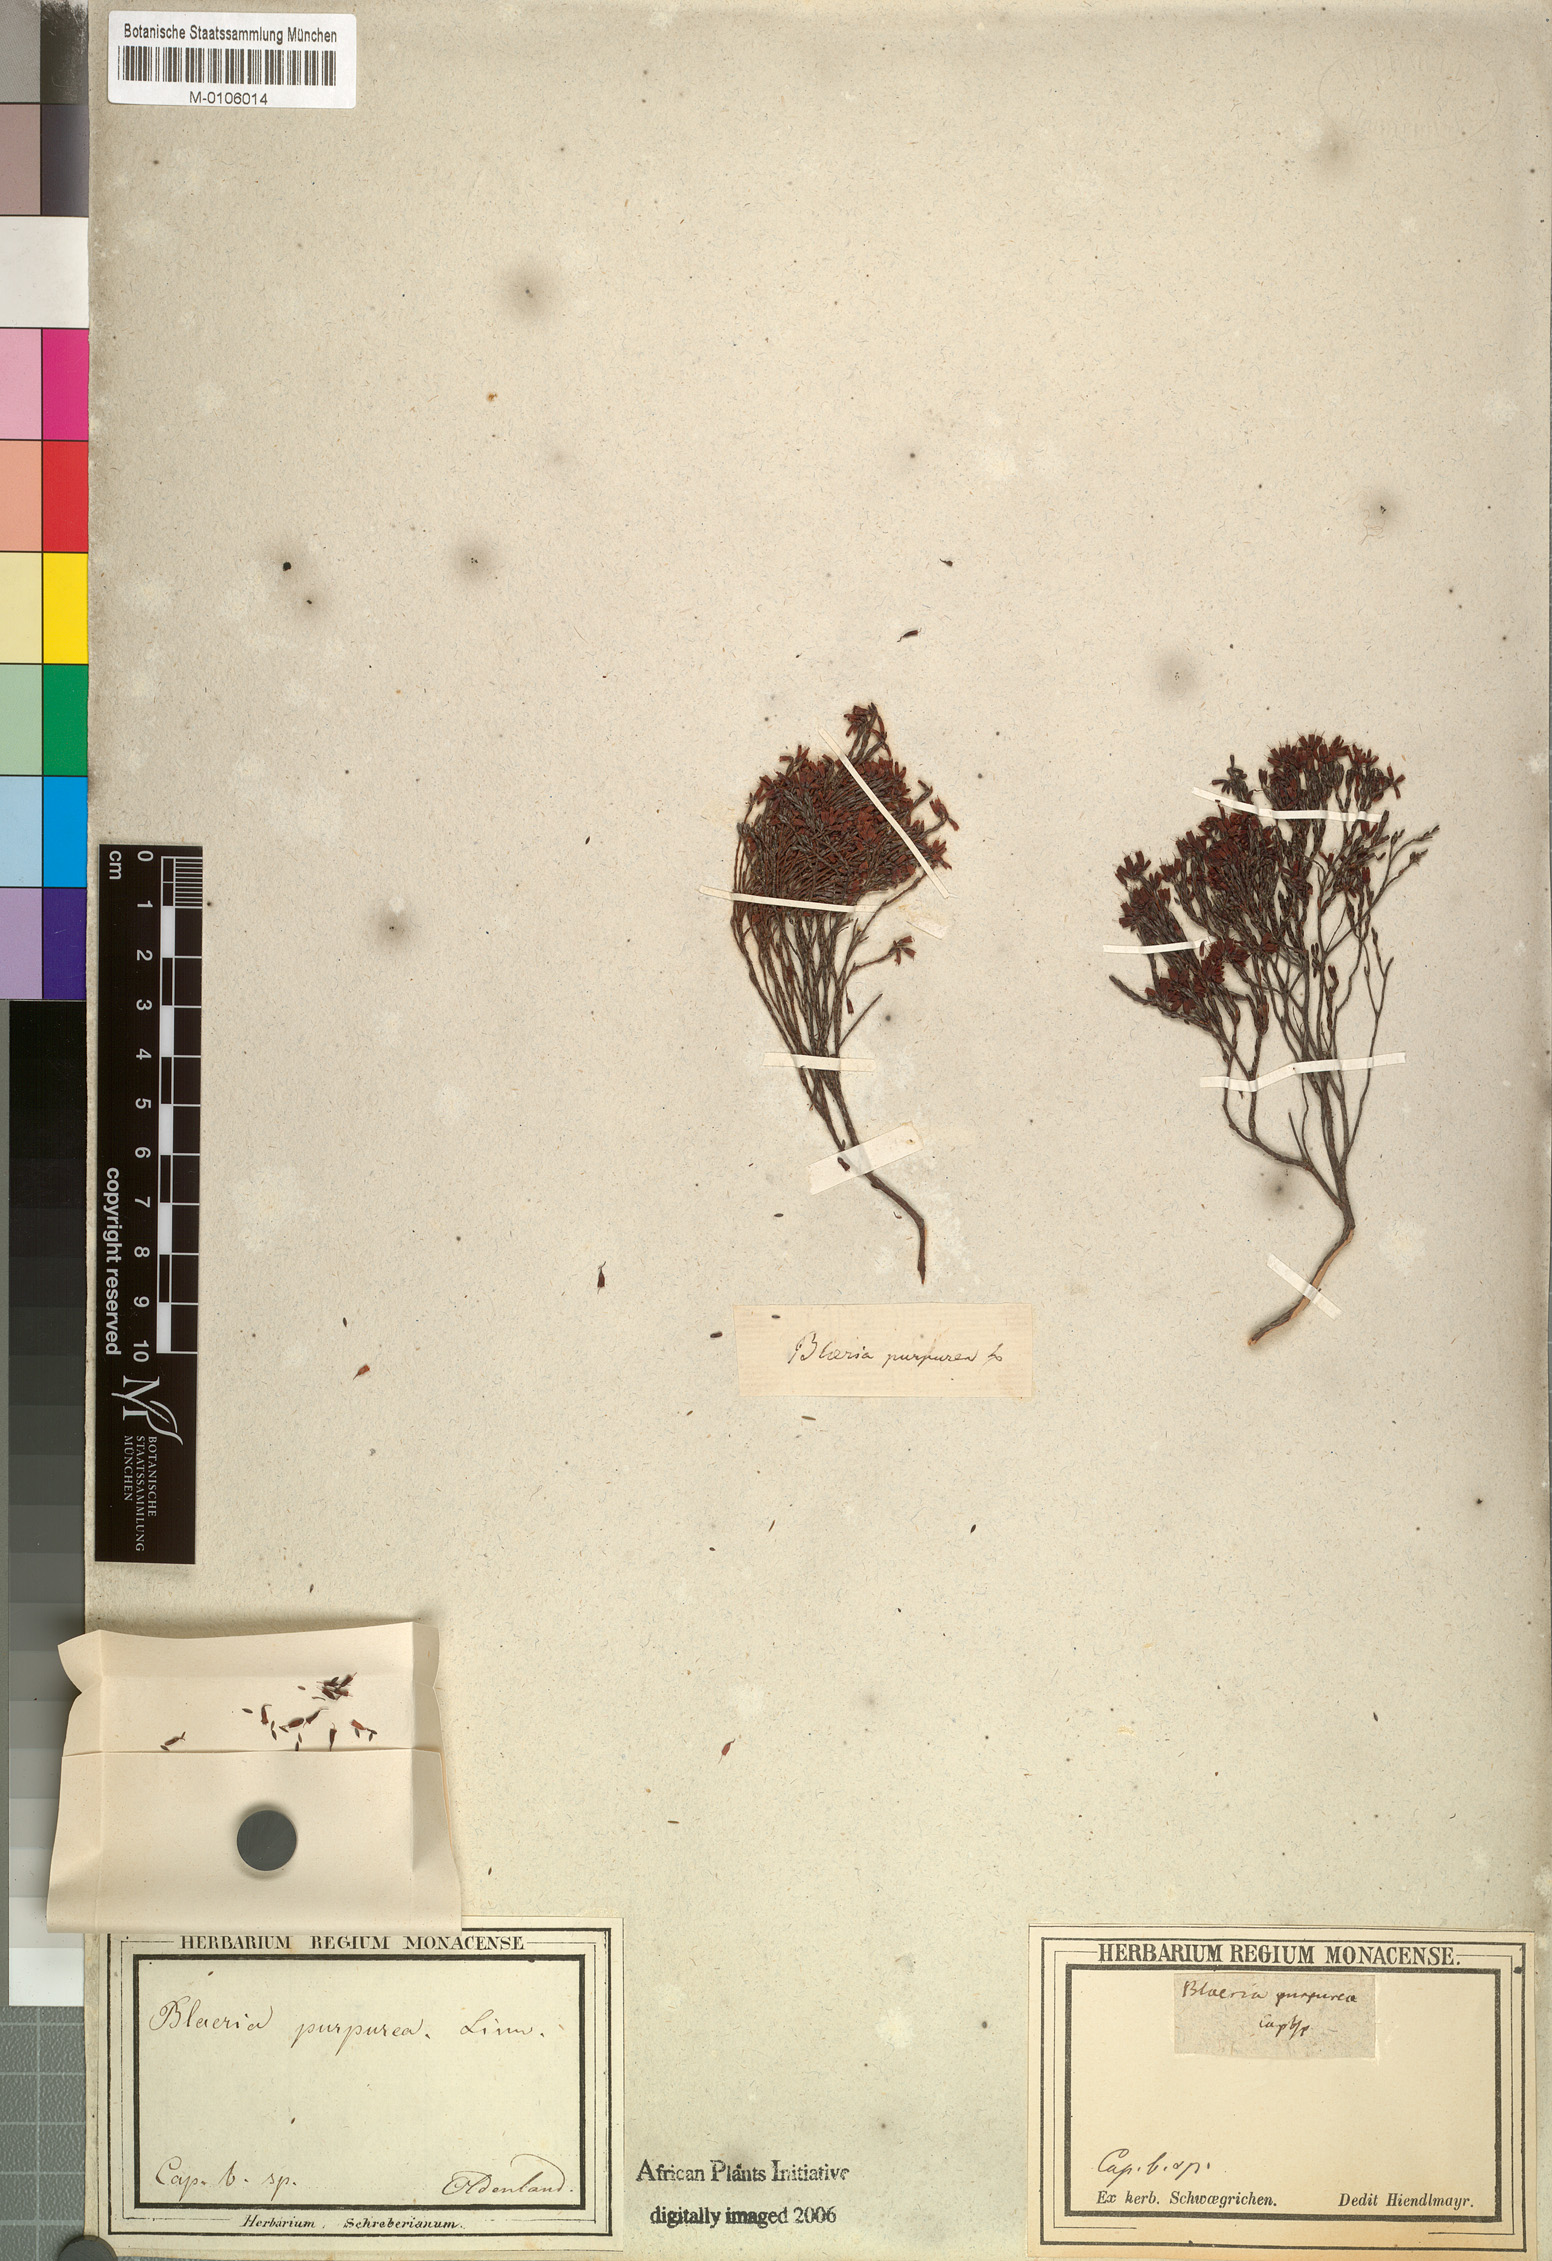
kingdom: Plantae
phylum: Tracheophyta
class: Magnoliopsida
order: Ericales
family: Ericaceae
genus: Erica
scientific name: Erica equisetifolia
